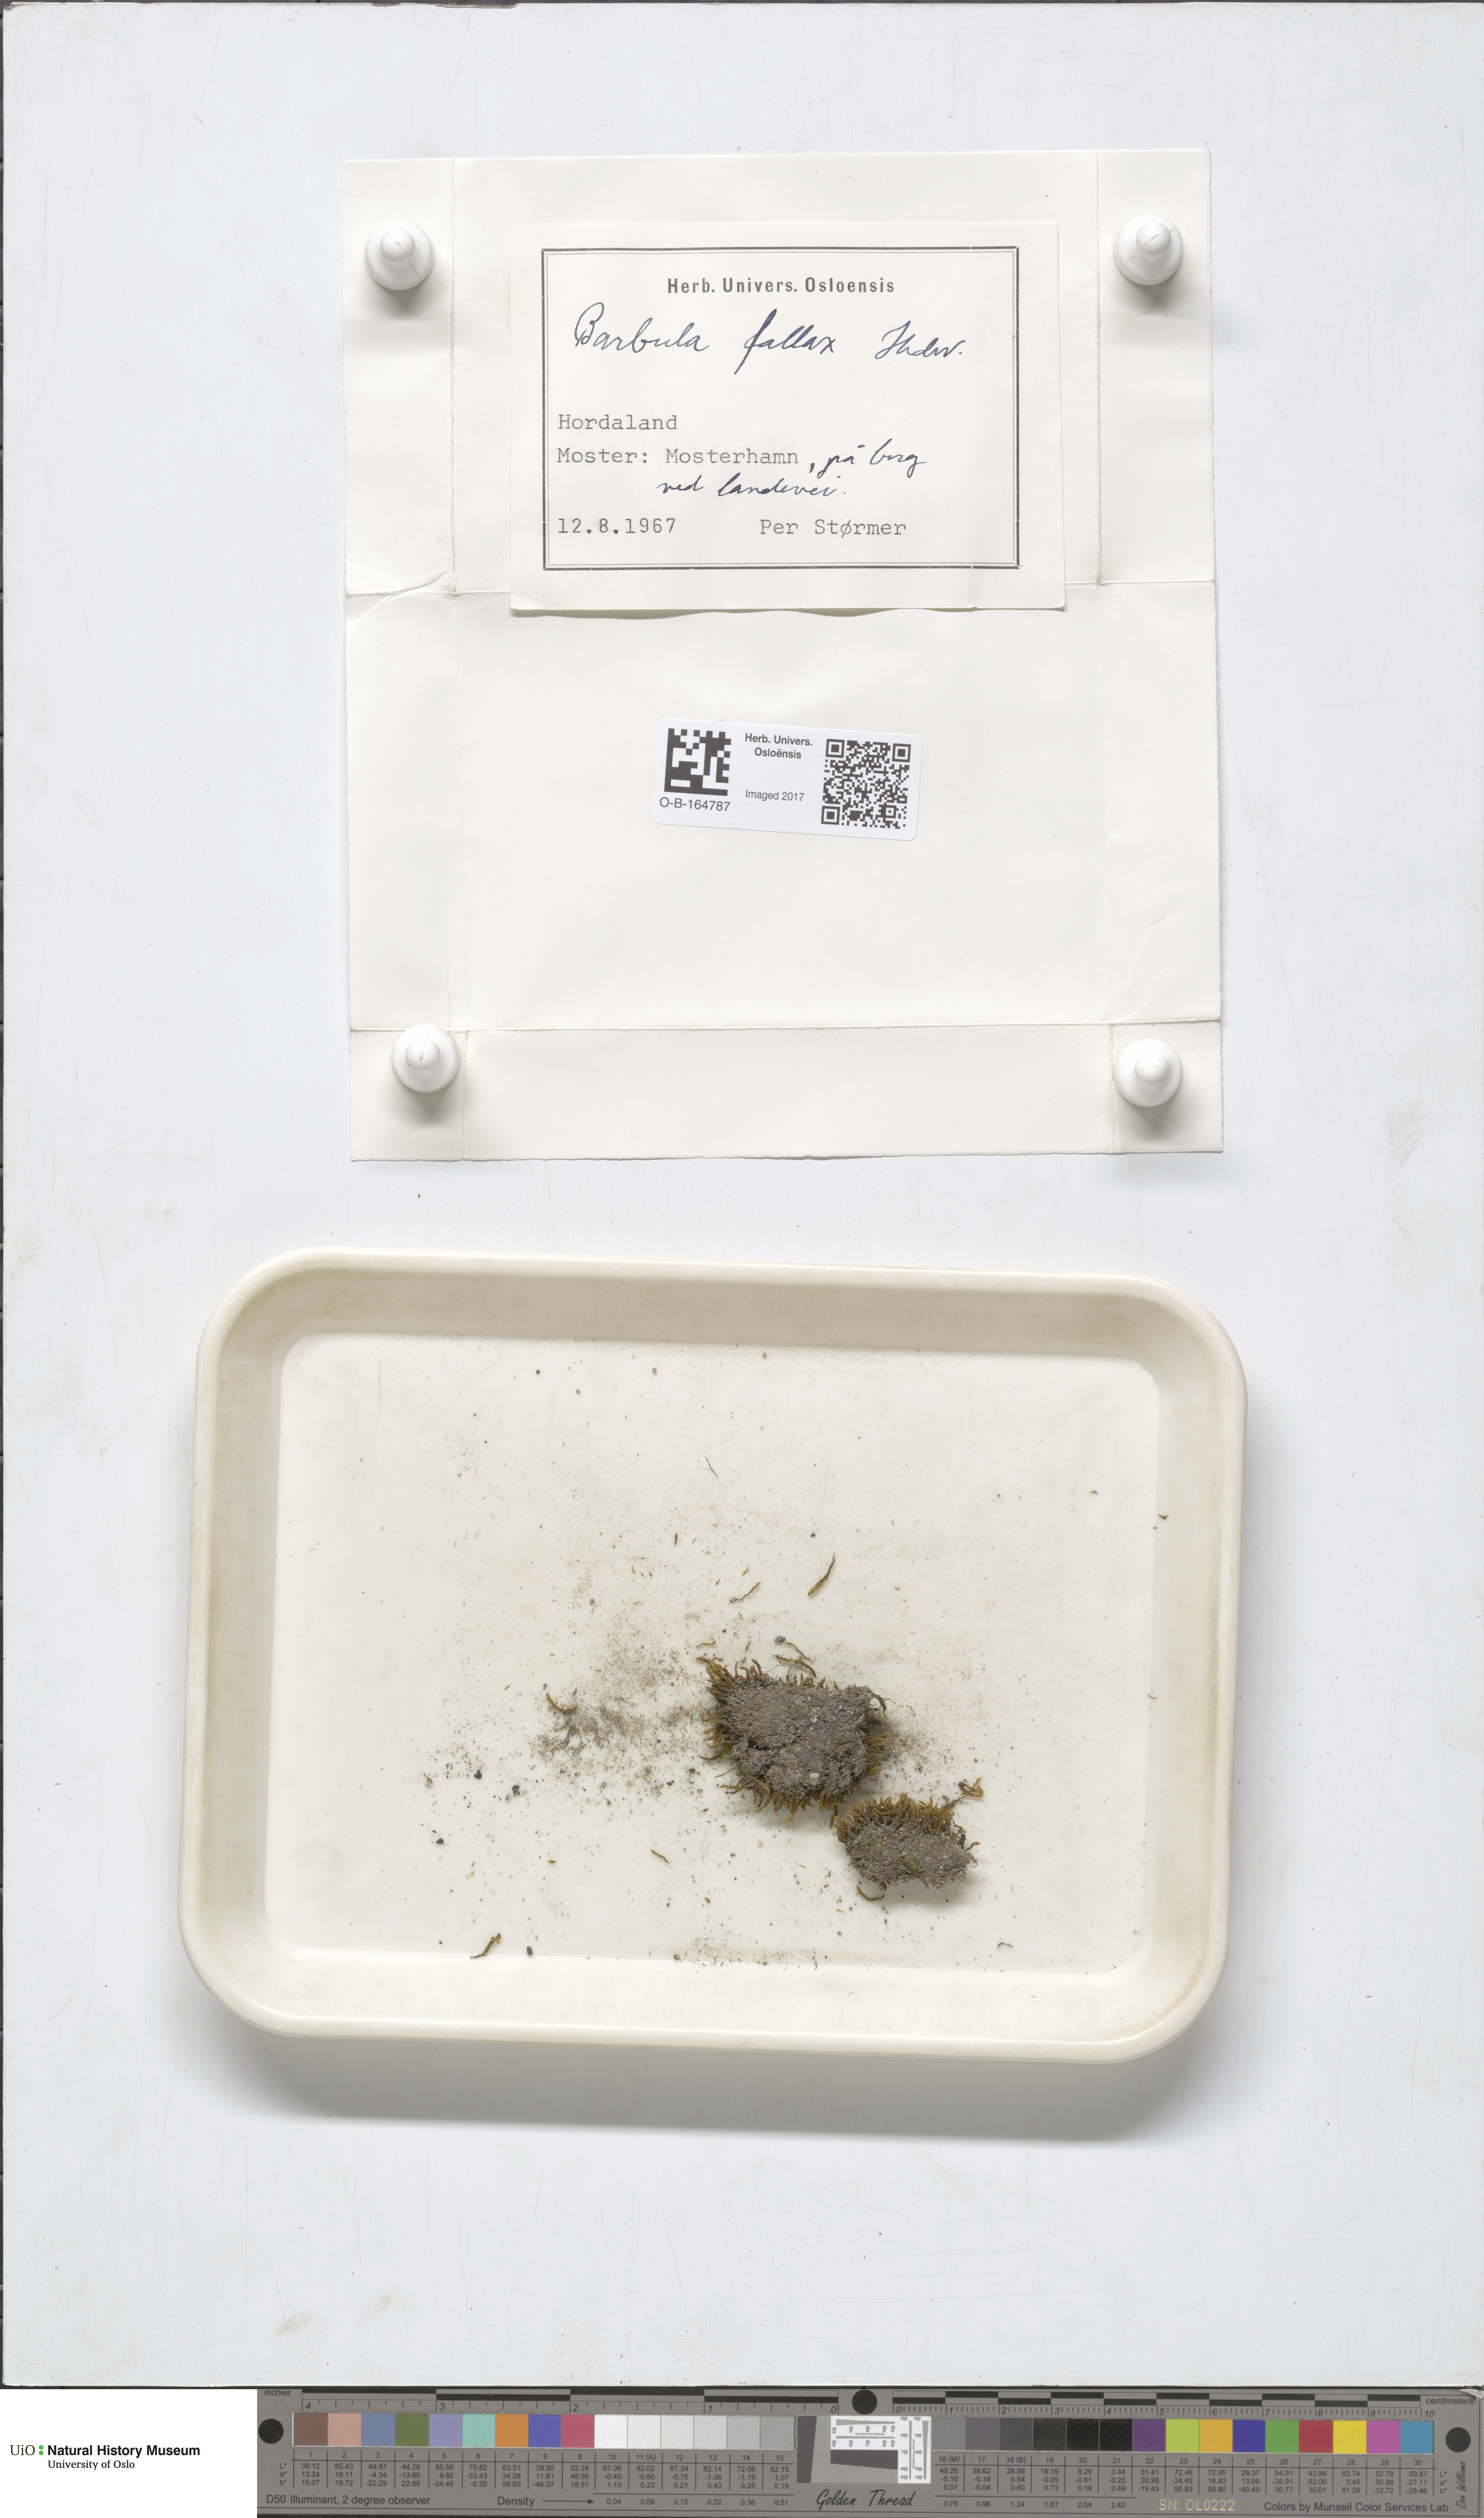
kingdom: Plantae
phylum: Bryophyta
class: Bryopsida
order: Pottiales
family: Pottiaceae
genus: Geheebia
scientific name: Geheebia fallax
